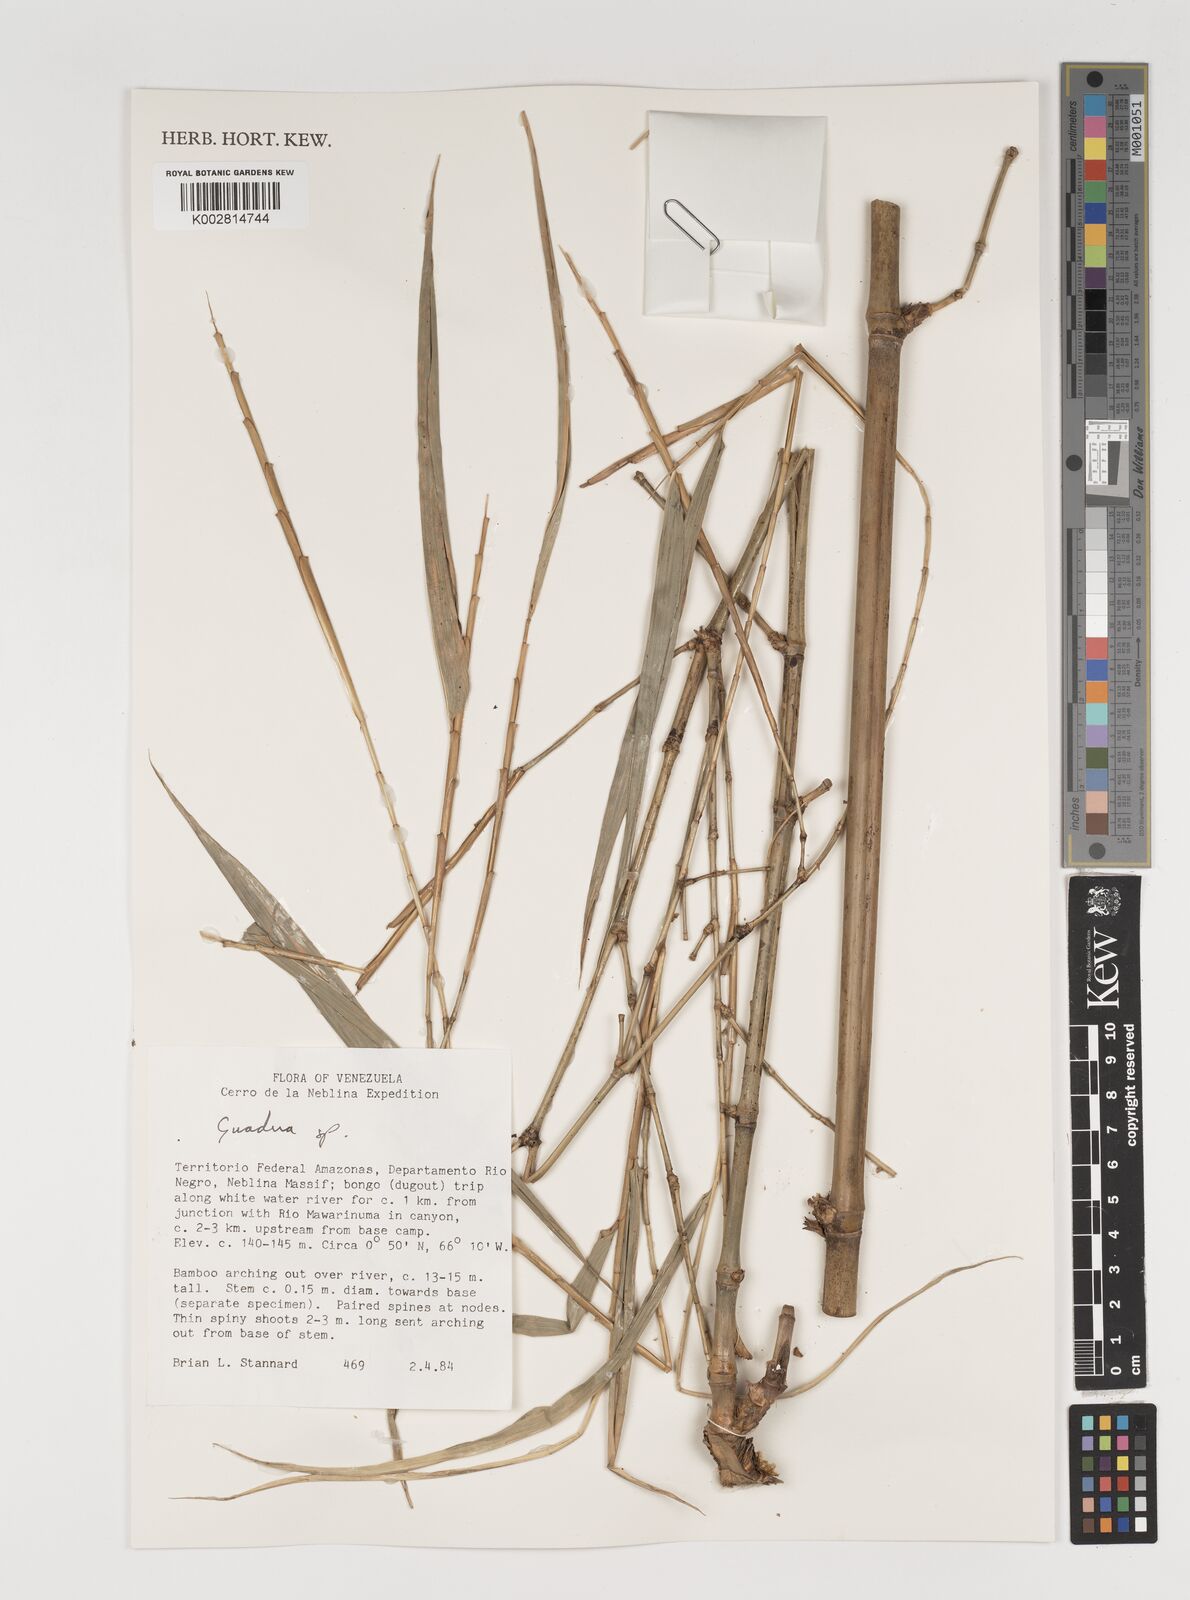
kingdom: Plantae
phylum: Tracheophyta
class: Liliopsida
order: Poales
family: Poaceae
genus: Guadua
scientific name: Guadua
